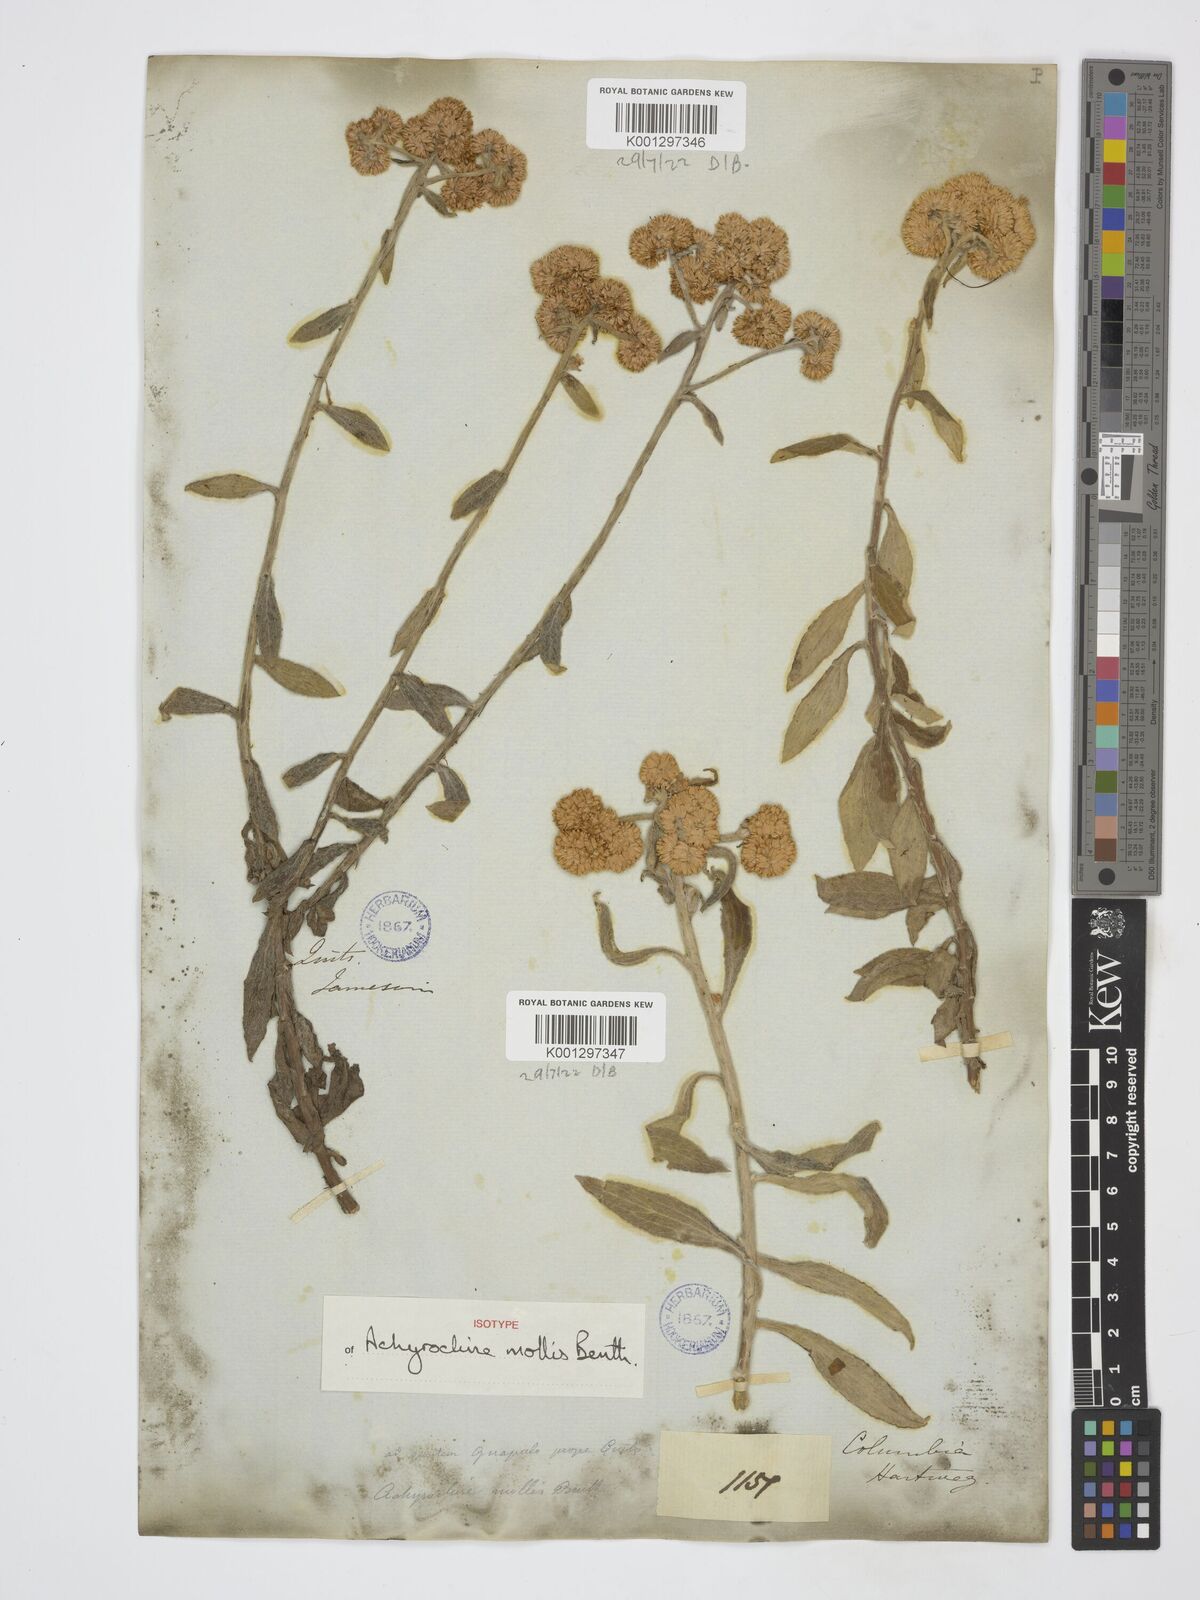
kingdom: Plantae
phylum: Tracheophyta
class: Magnoliopsida
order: Asterales
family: Asteraceae
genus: Achyrocline
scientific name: Achyrocline mollis
